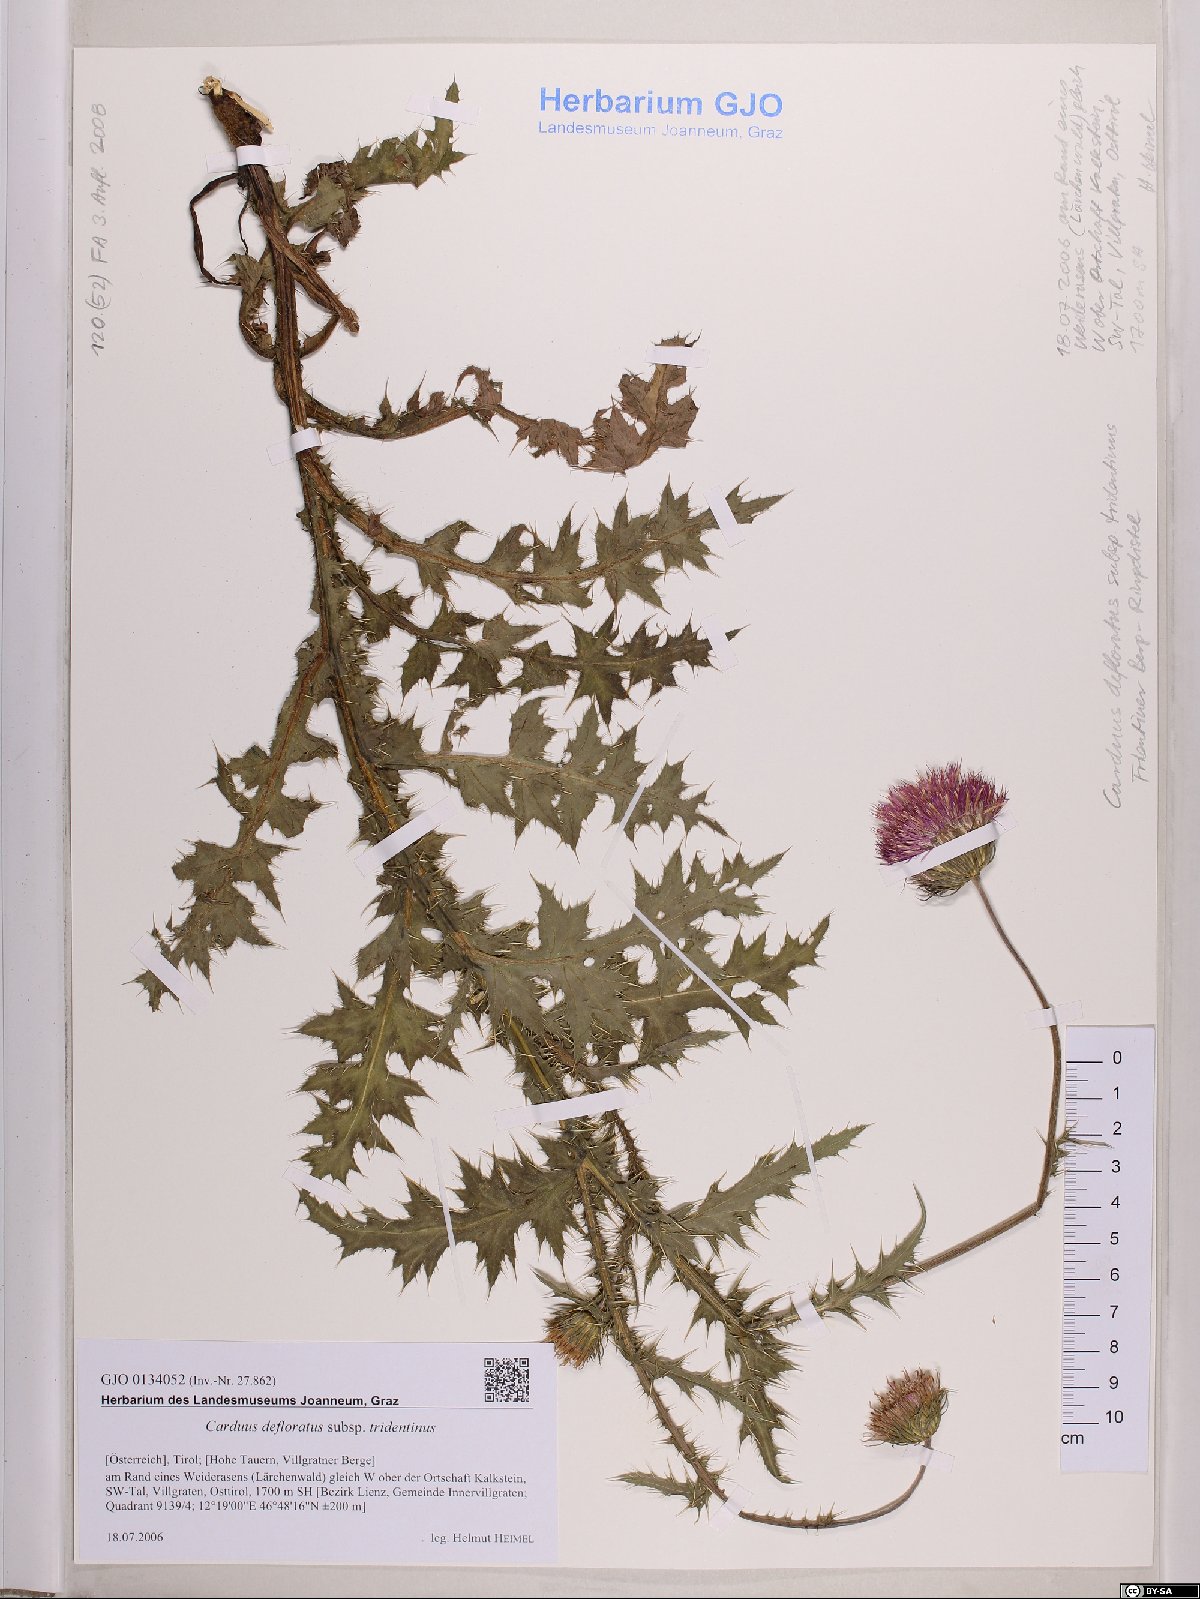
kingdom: Plantae
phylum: Tracheophyta
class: Magnoliopsida
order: Asterales
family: Asteraceae
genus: Carduus
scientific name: Carduus defloratus
